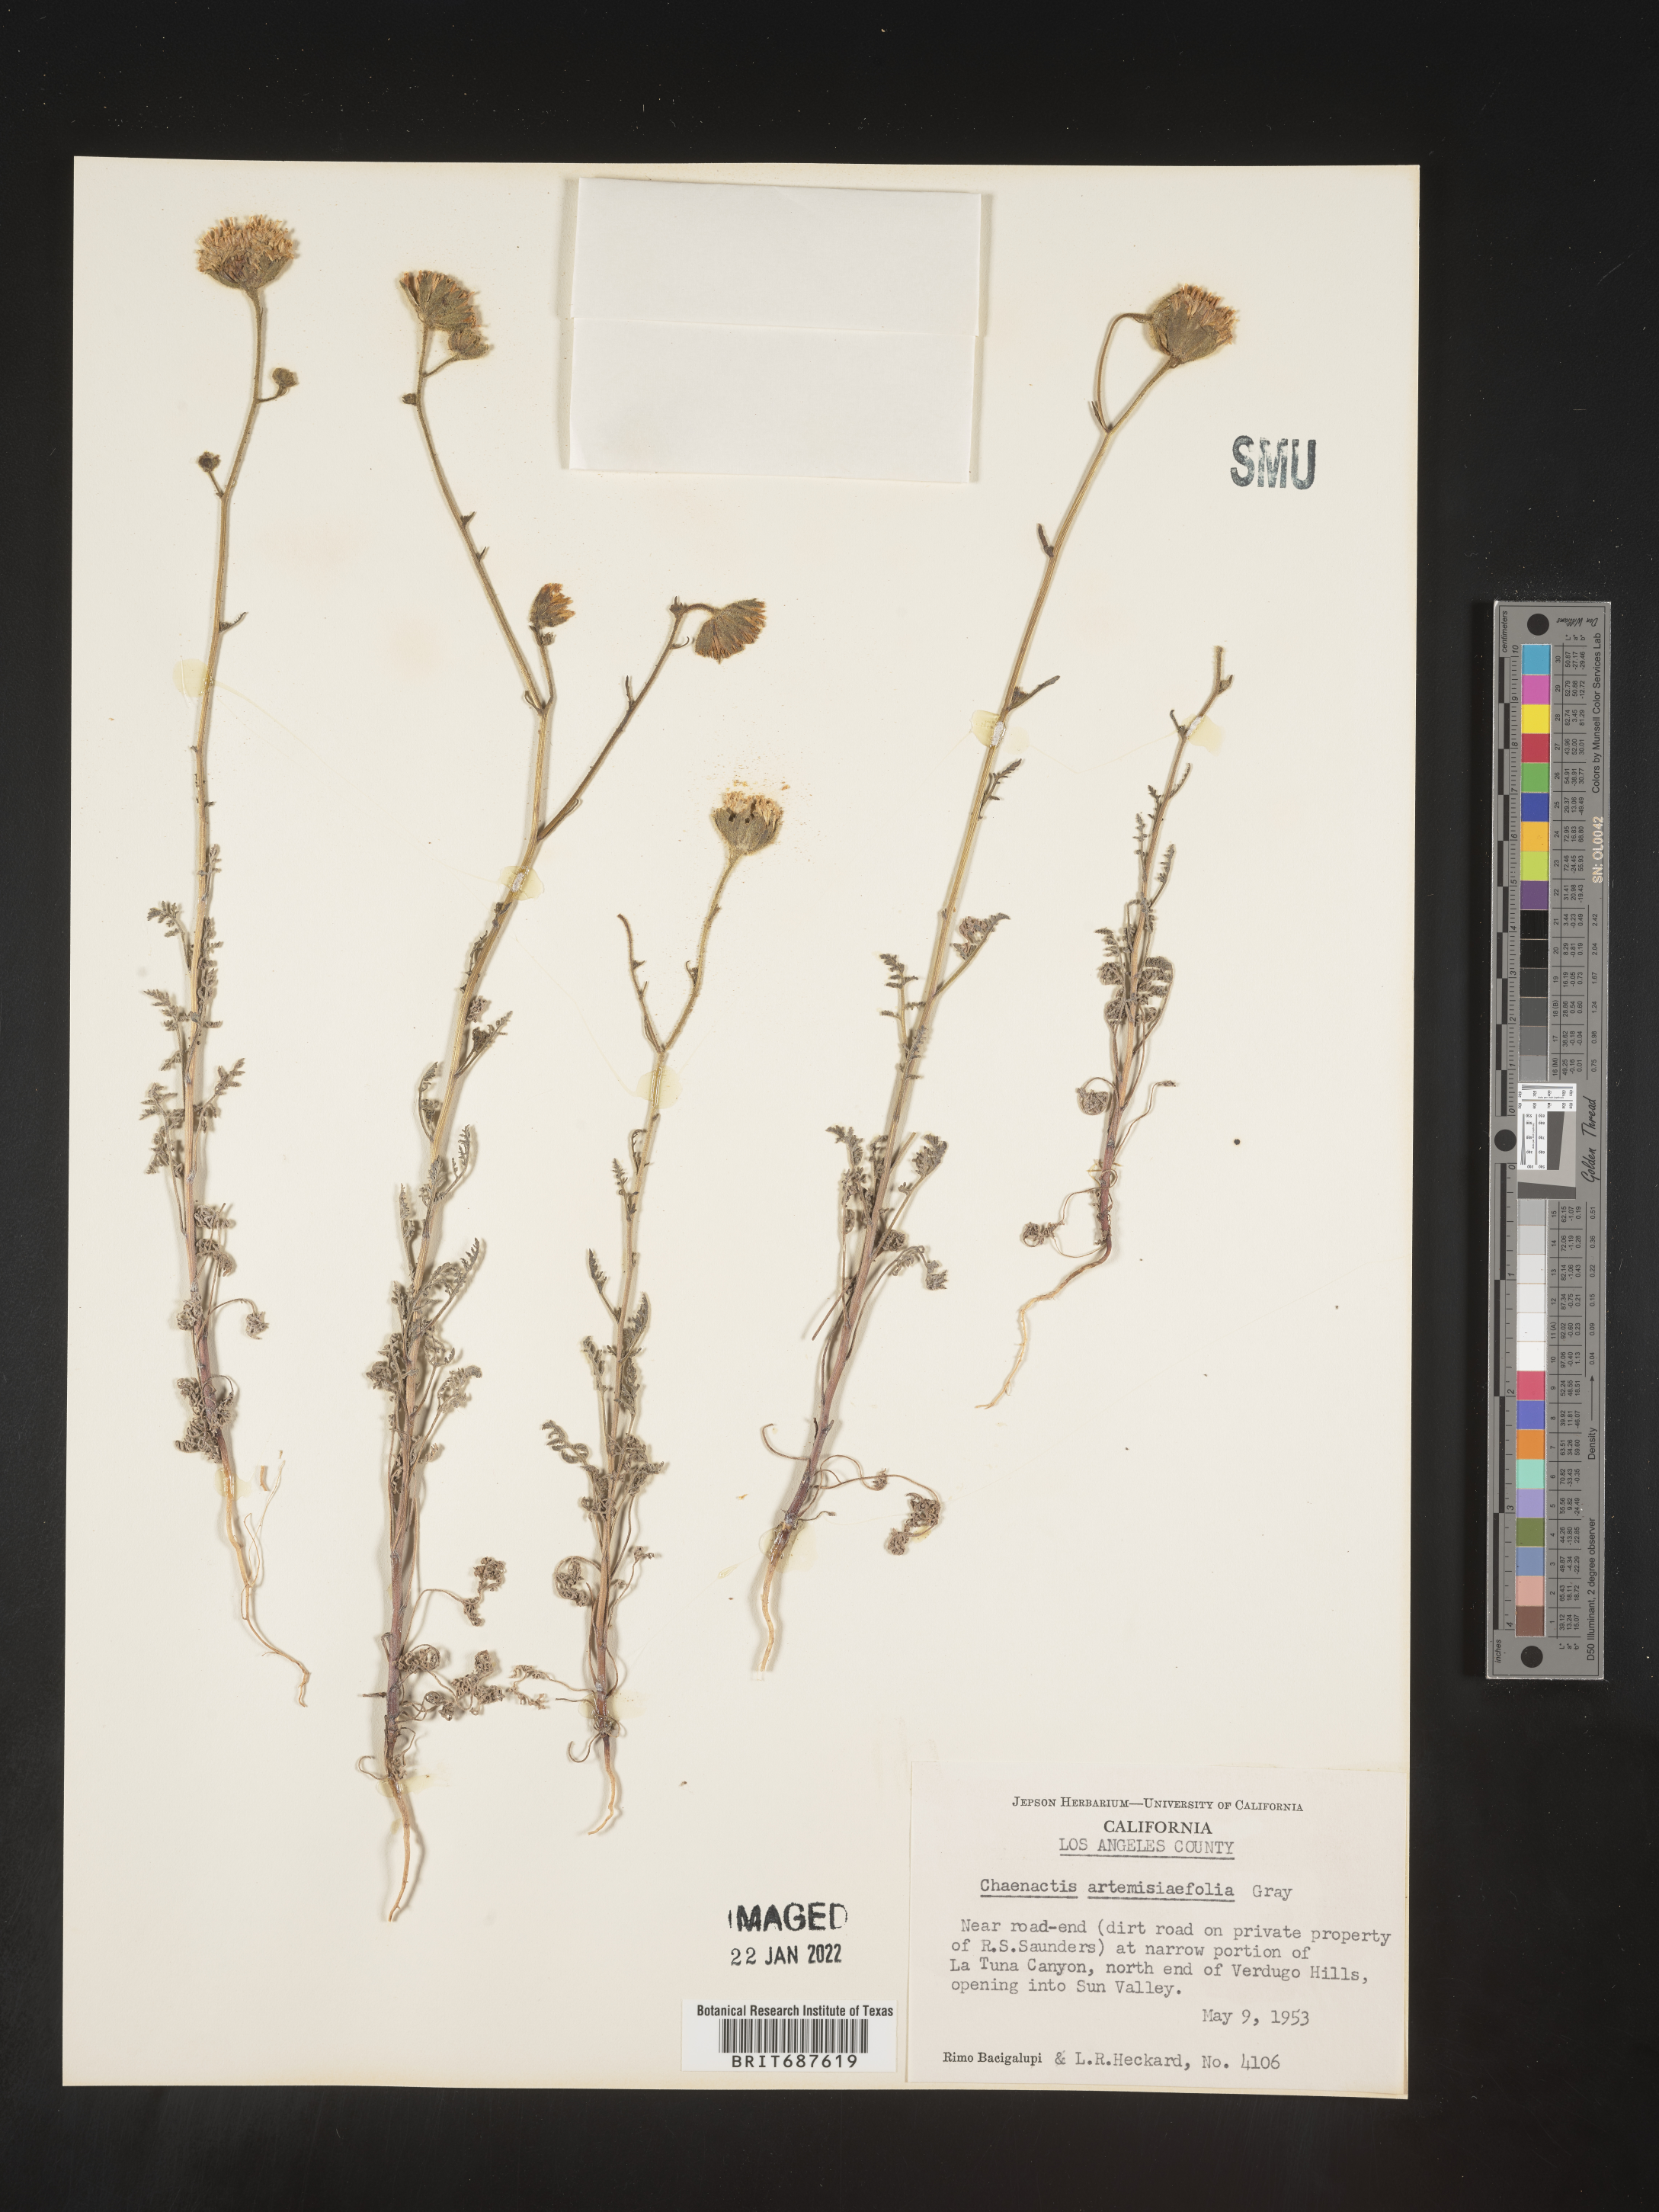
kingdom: Plantae
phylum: Tracheophyta
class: Magnoliopsida
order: Asterales
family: Asteraceae
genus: Chaenactis
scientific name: Chaenactis carphoclinia
